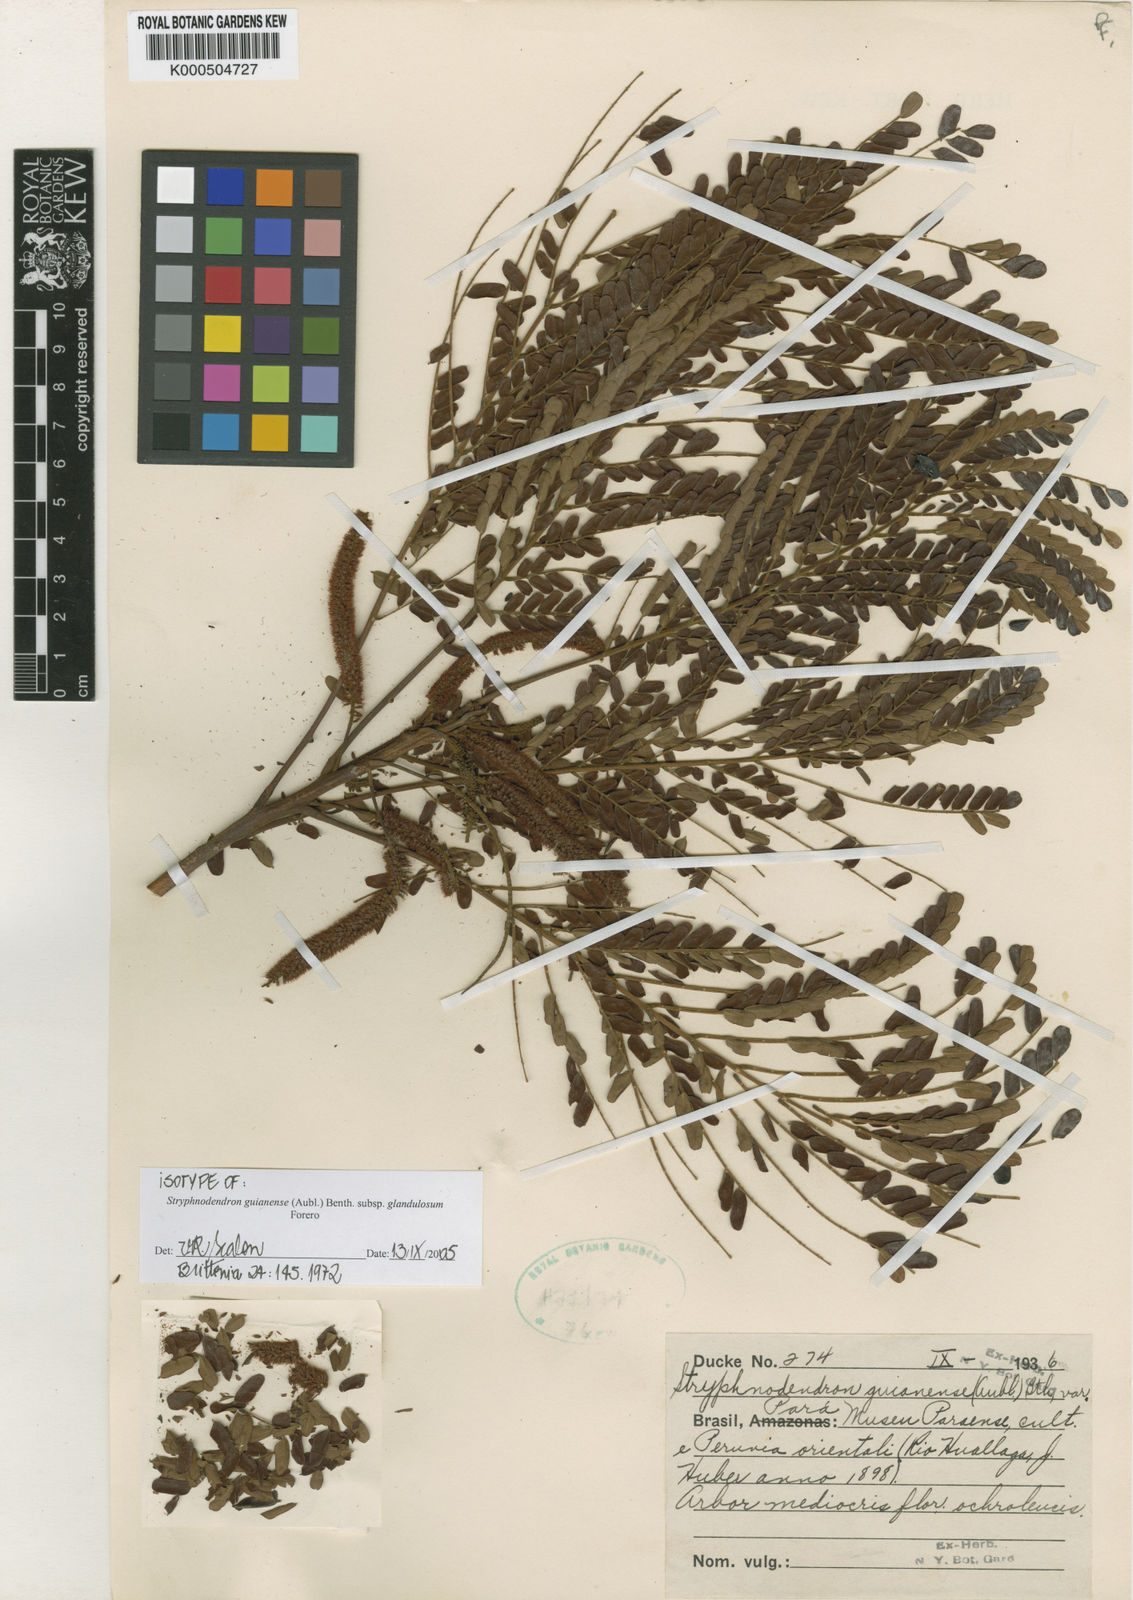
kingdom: Plantae
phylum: Tracheophyta
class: Magnoliopsida
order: Fabales
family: Fabaceae
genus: Stryphnodendron
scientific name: Stryphnodendron guianense
